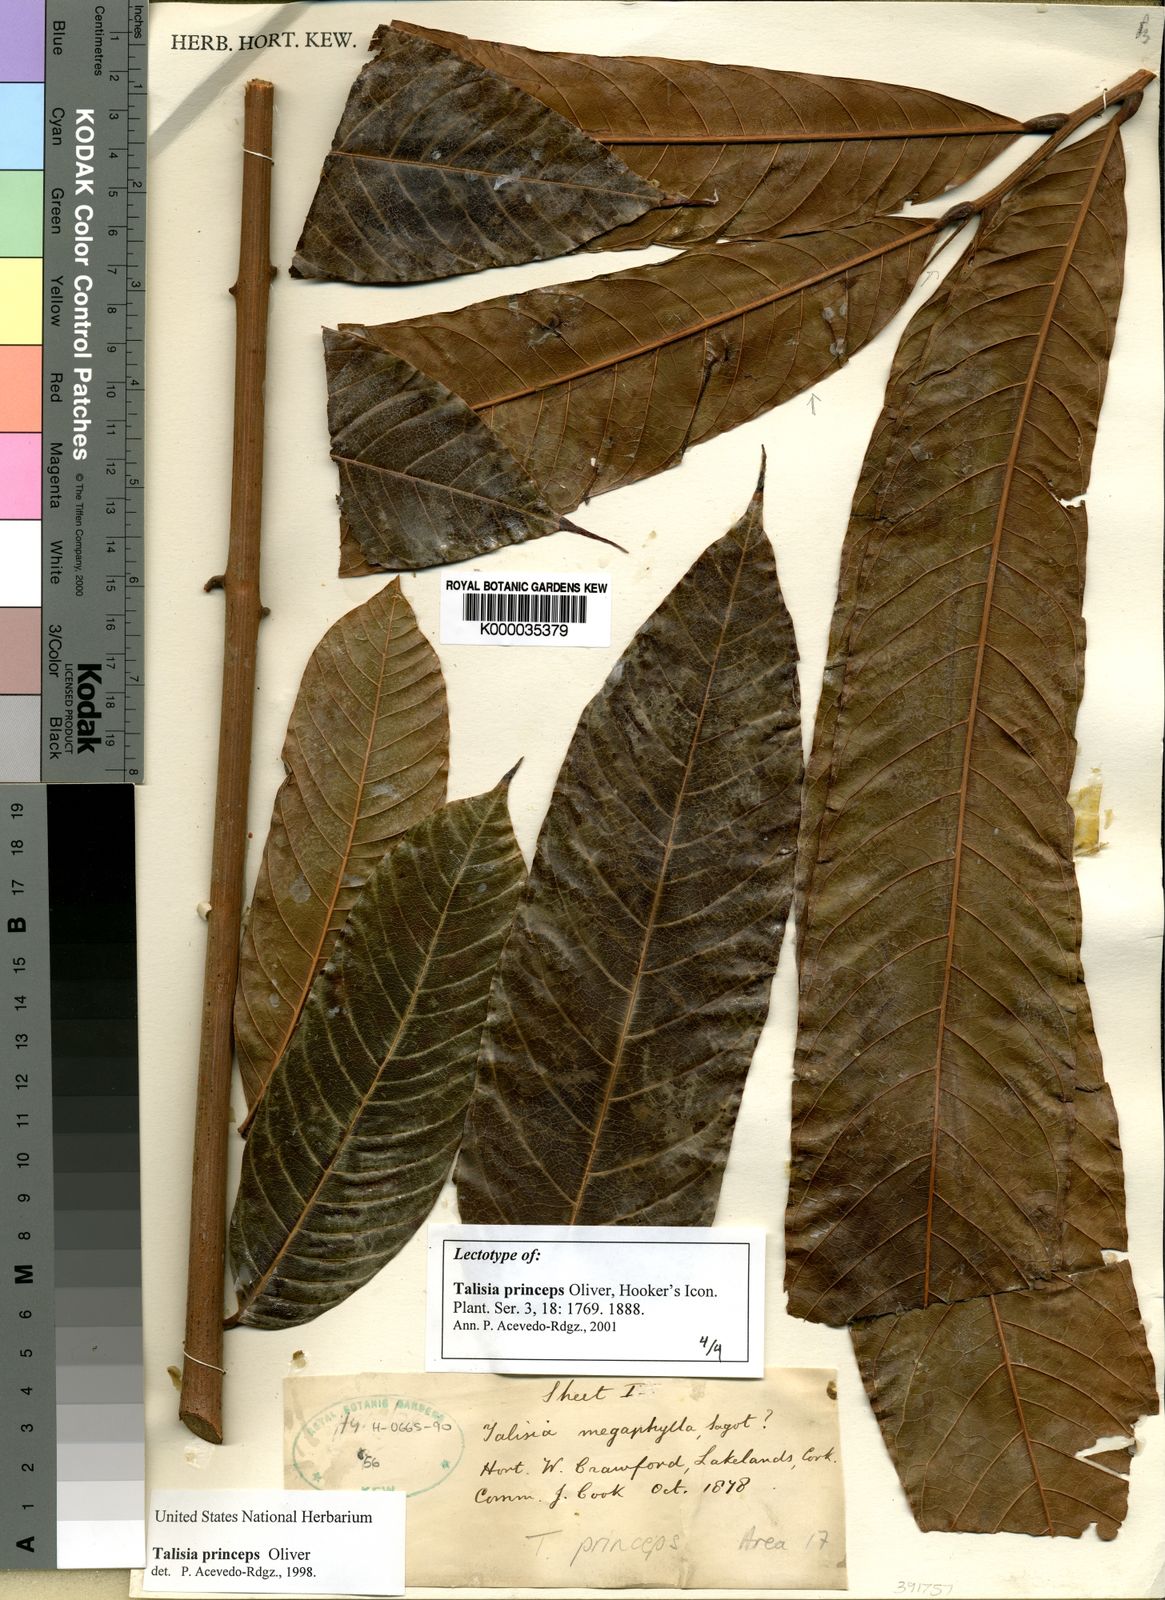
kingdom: Plantae
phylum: Tracheophyta
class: Magnoliopsida
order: Sapindales
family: Sapindaceae
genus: Talisia
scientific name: Talisia princeps
